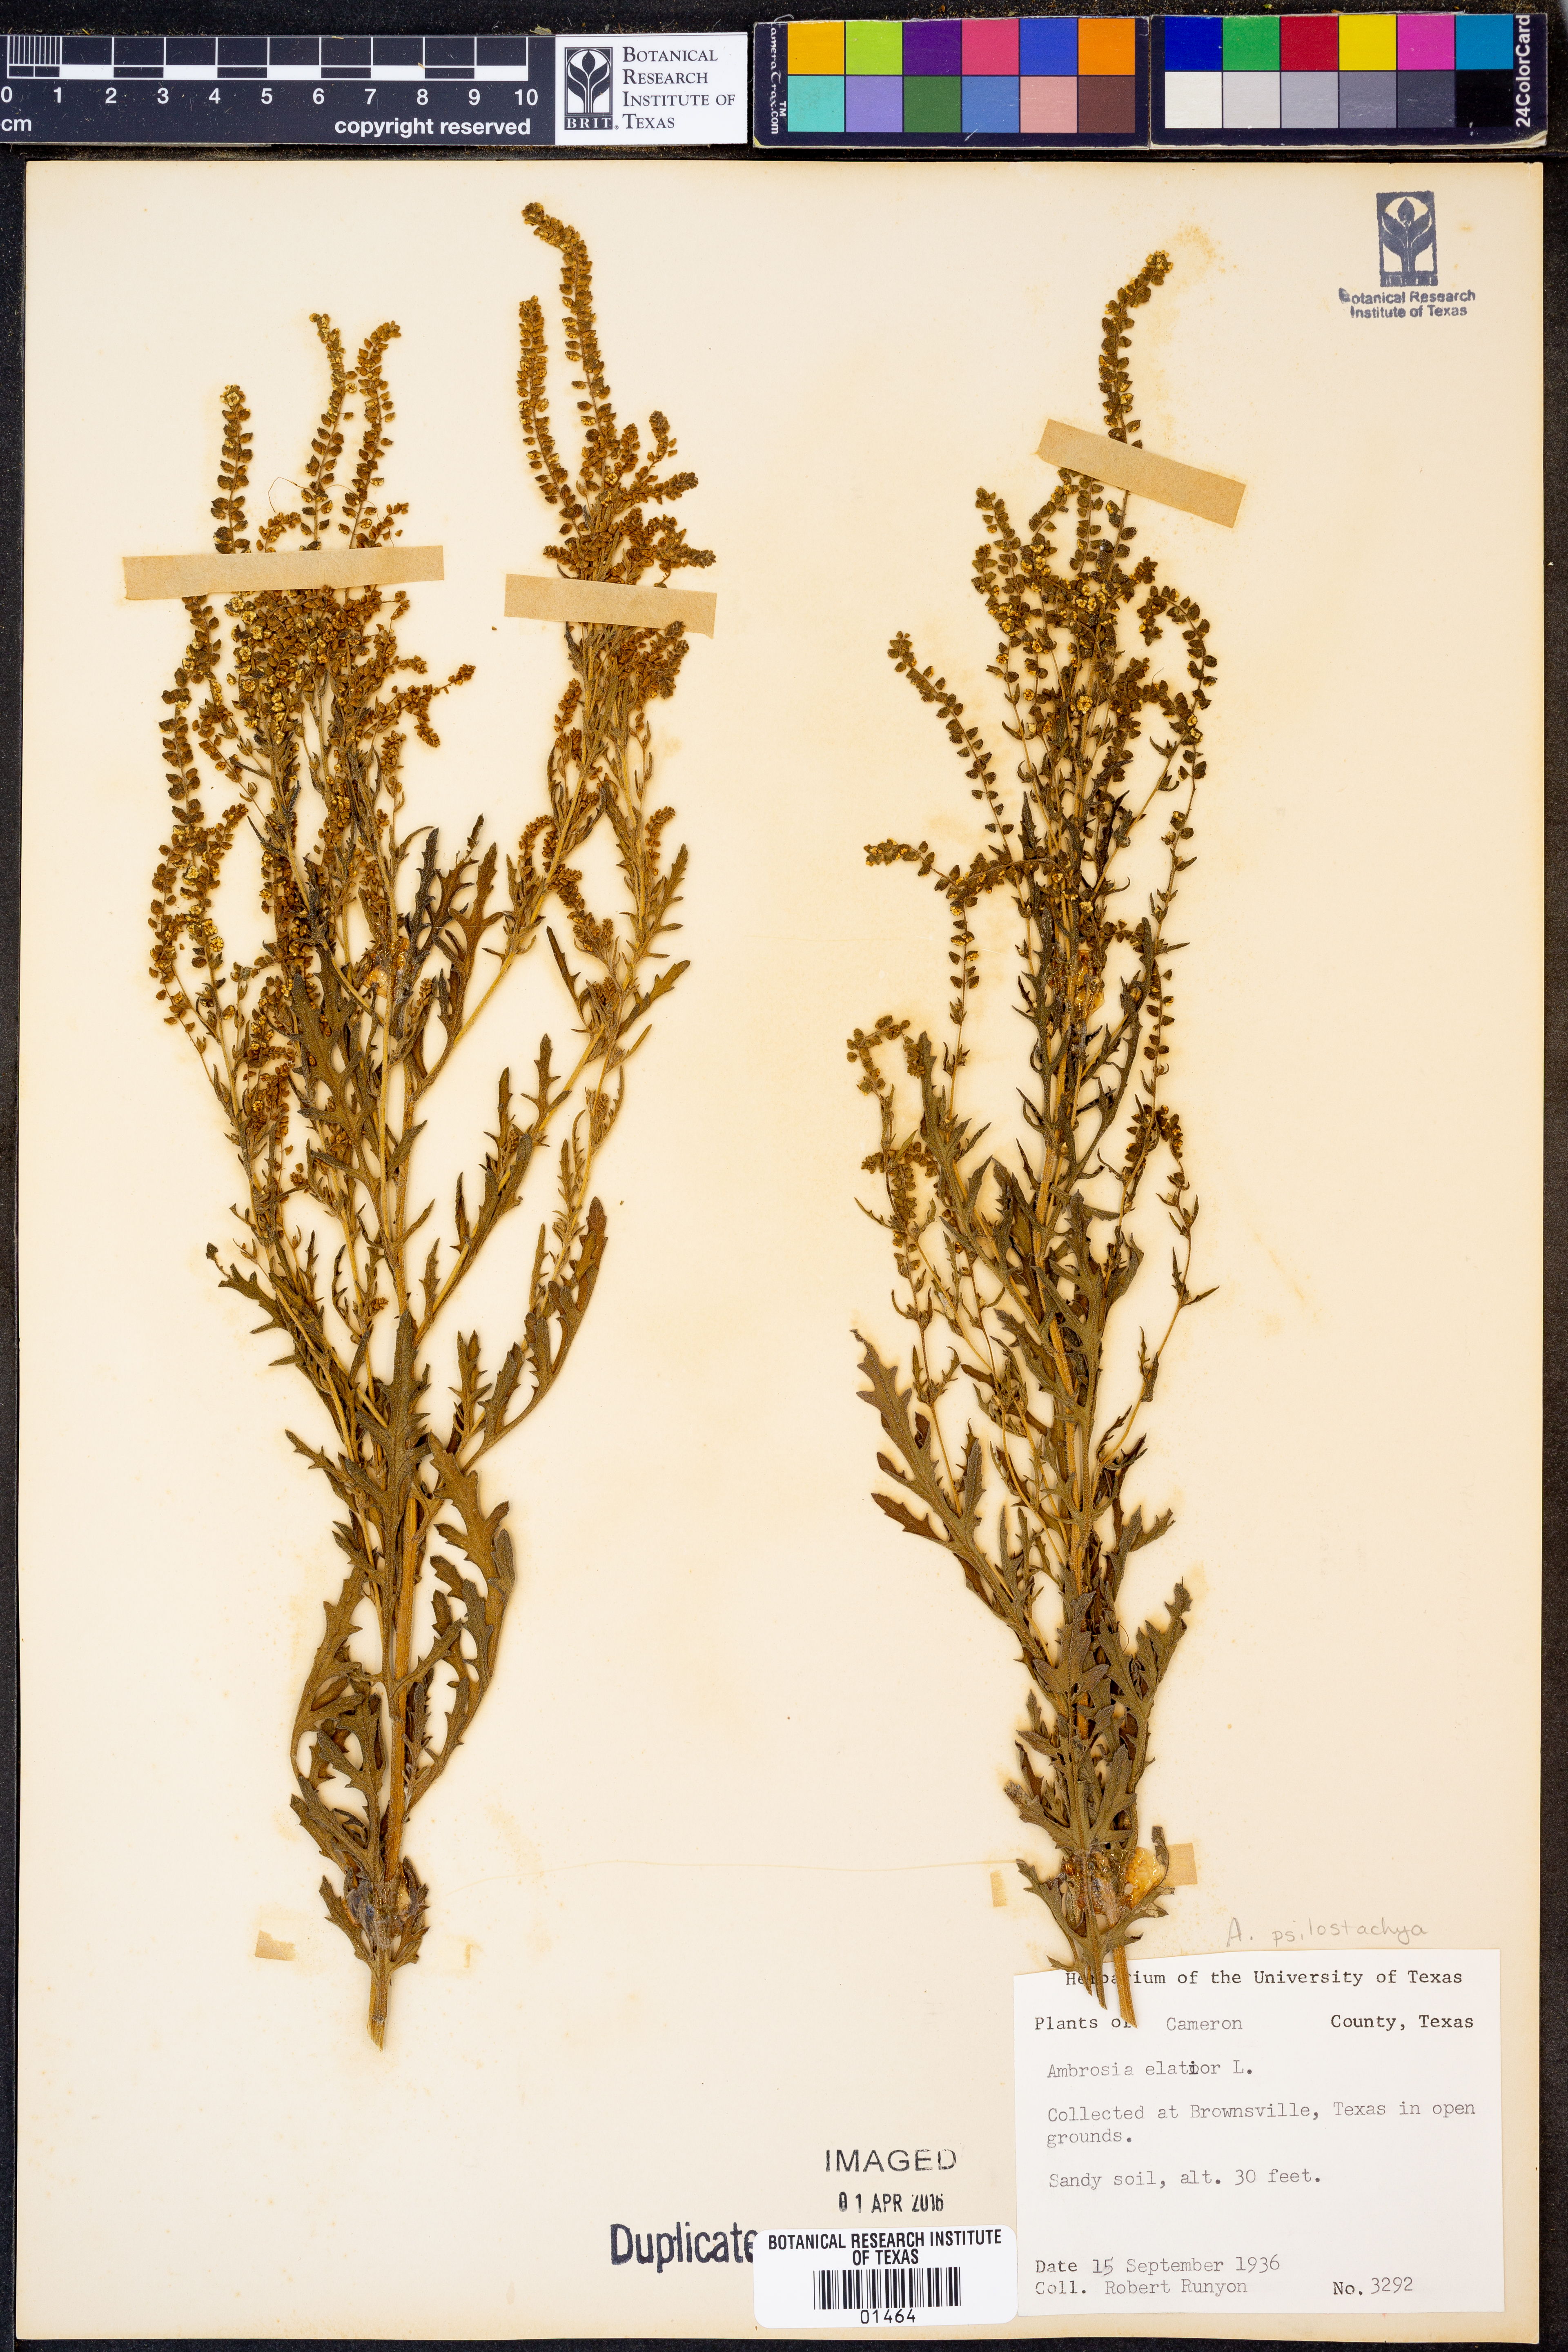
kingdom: Plantae
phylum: Tracheophyta
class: Magnoliopsida
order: Asterales
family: Asteraceae
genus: Ambrosia
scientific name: Ambrosia psilostachya
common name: Perennial ragweed
